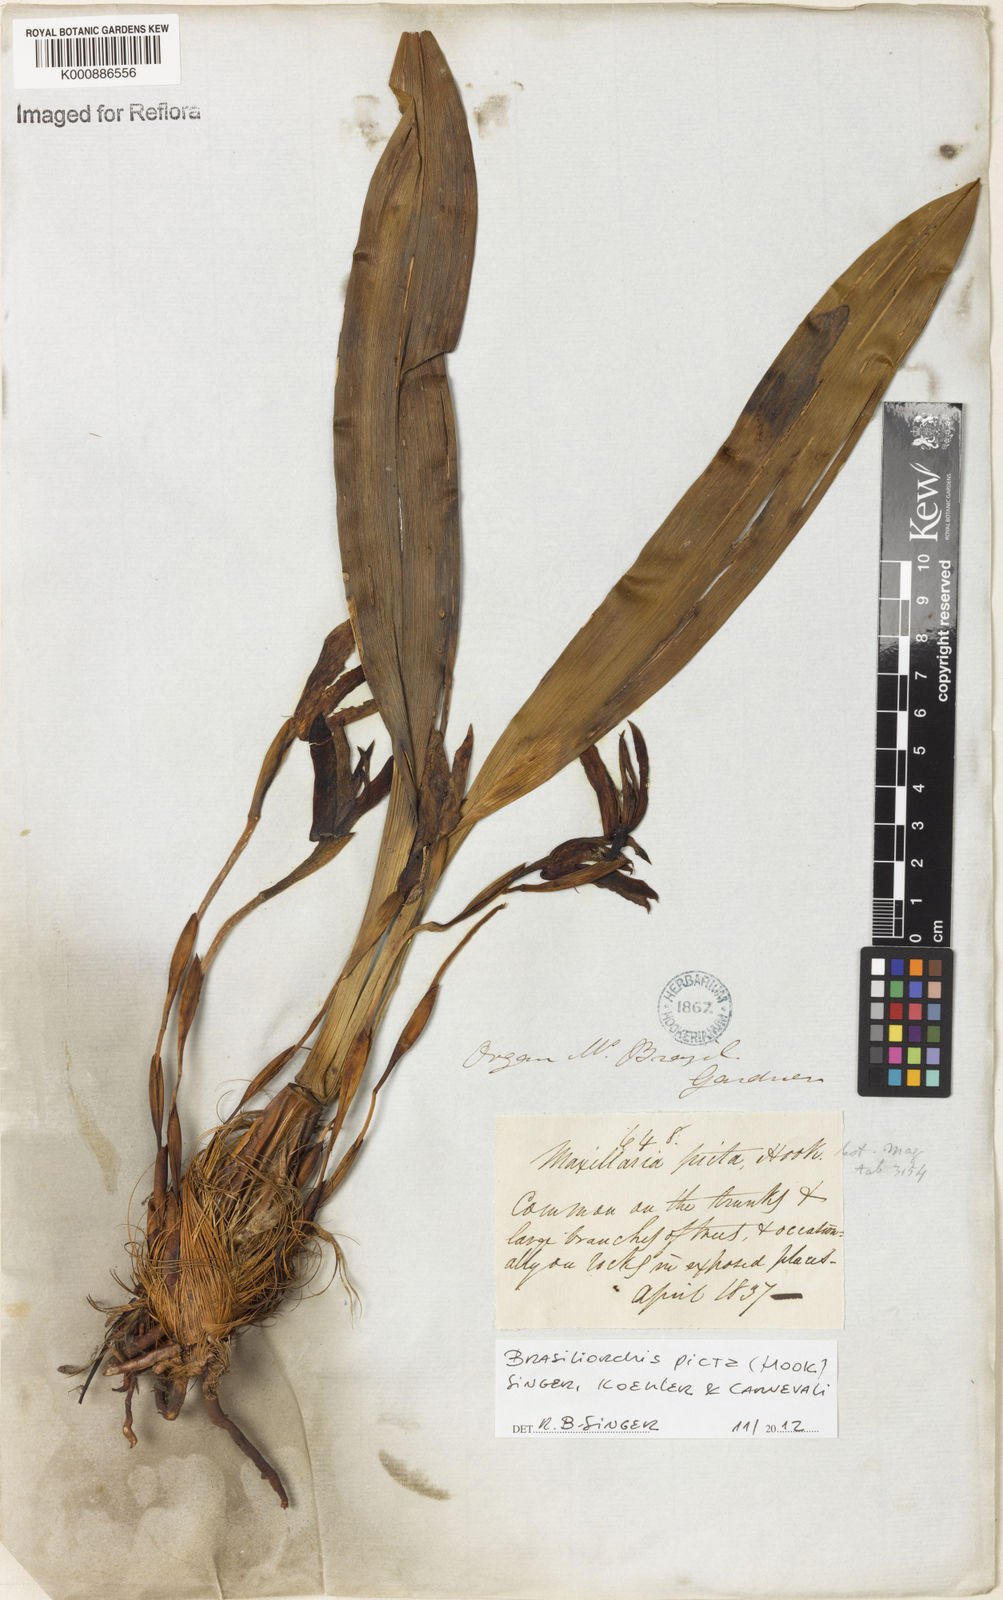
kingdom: Plantae
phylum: Tracheophyta
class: Liliopsida
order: Asparagales
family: Orchidaceae
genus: Maxillaria
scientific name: Maxillaria
